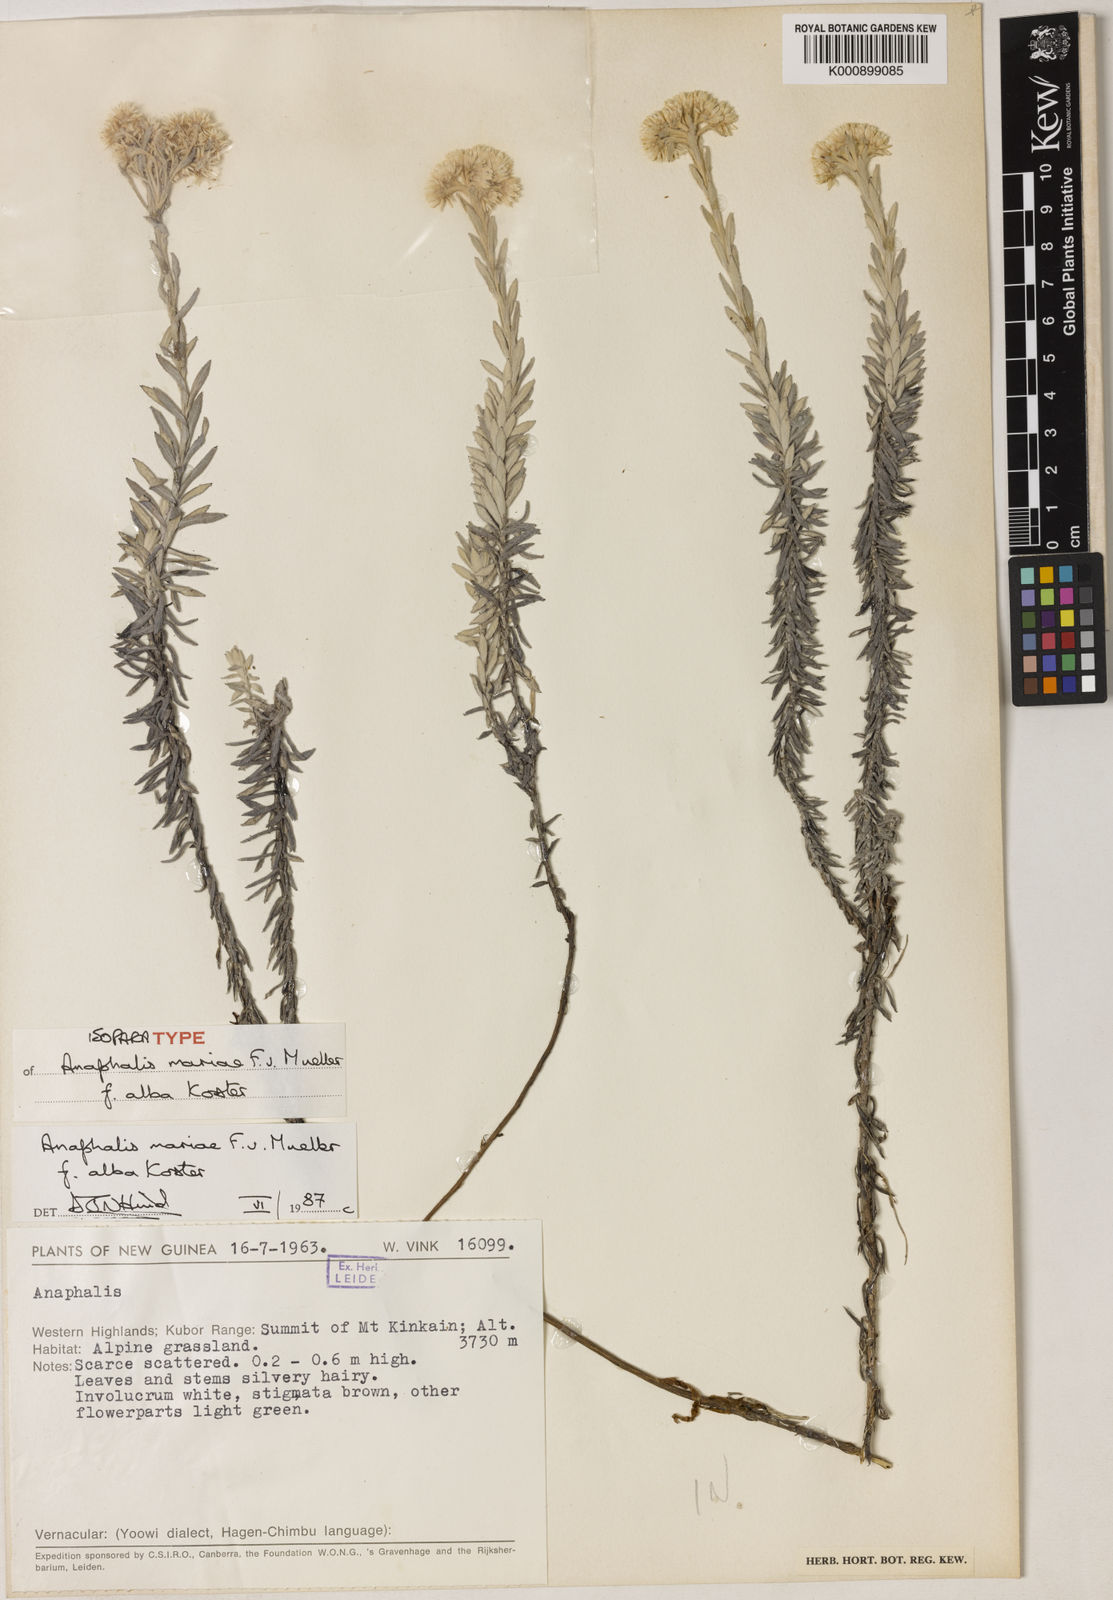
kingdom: Plantae
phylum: Tracheophyta
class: Magnoliopsida
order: Asterales
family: Asteraceae
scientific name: Asteraceae
